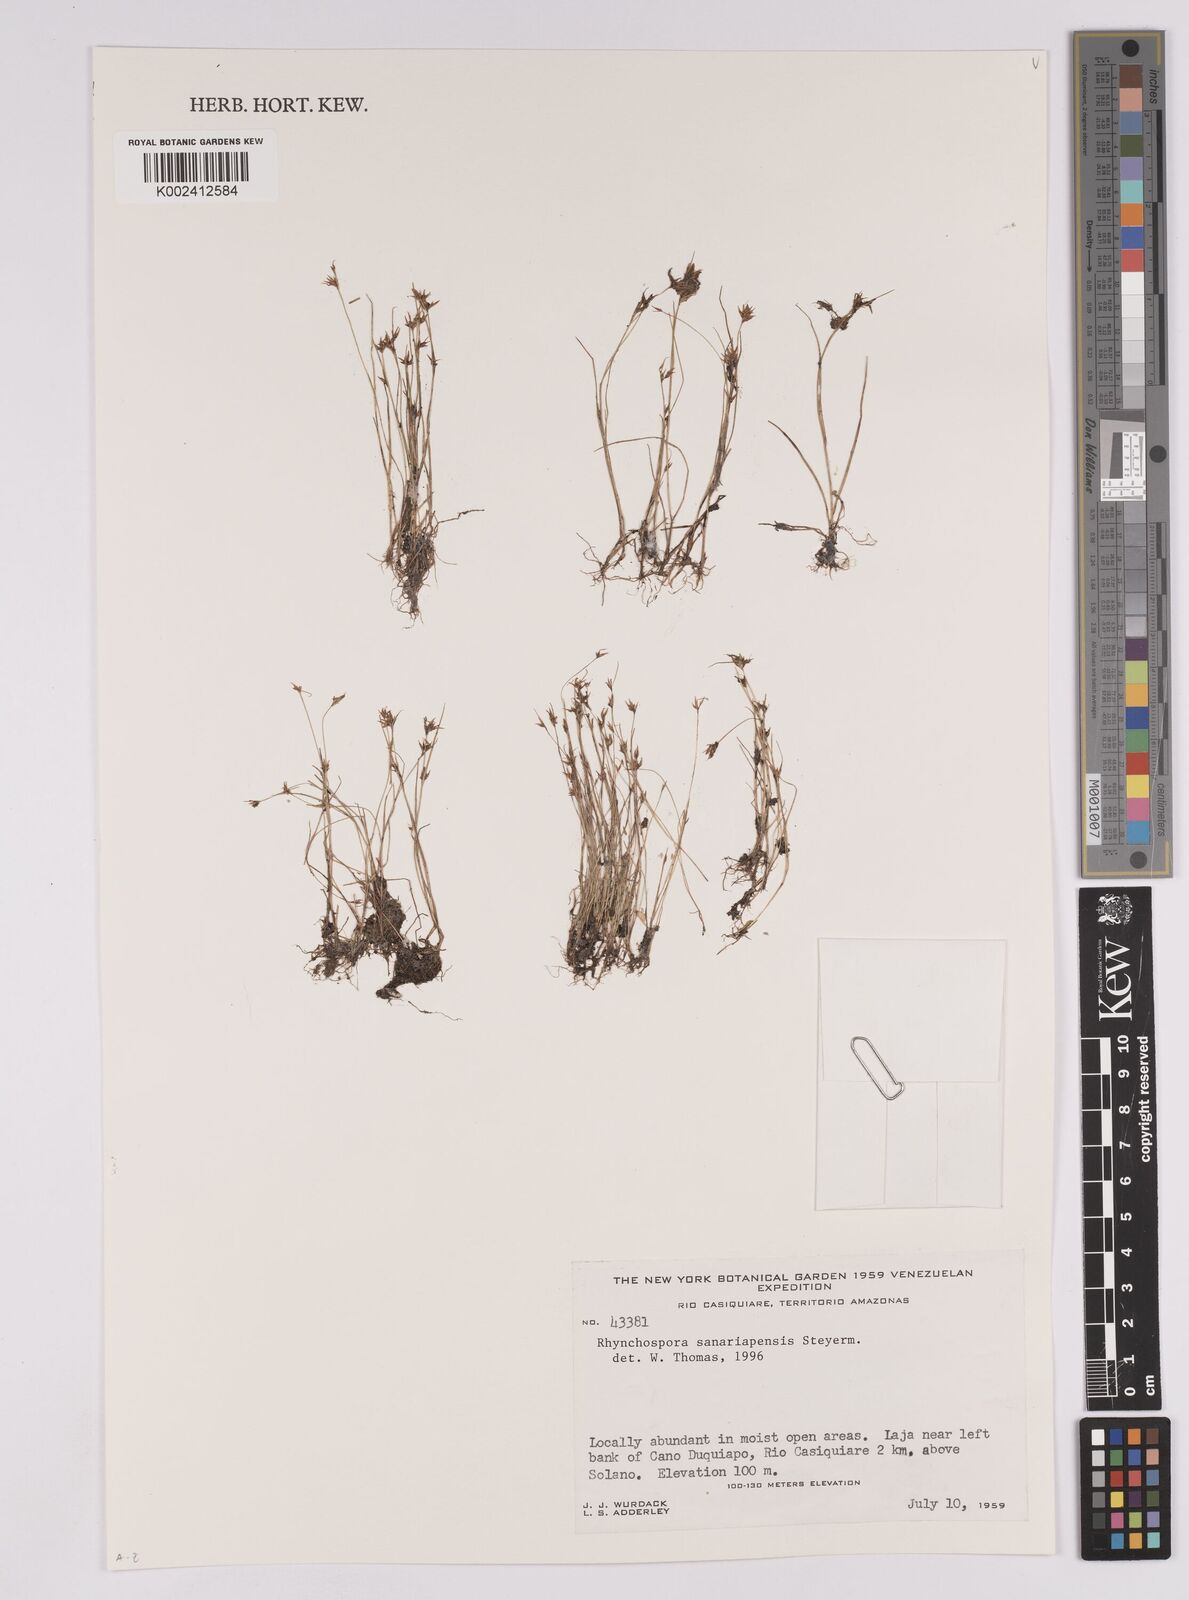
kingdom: Plantae
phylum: Tracheophyta
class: Liliopsida
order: Poales
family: Cyperaceae
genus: Rhynchospora
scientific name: Rhynchospora sanariapensis
